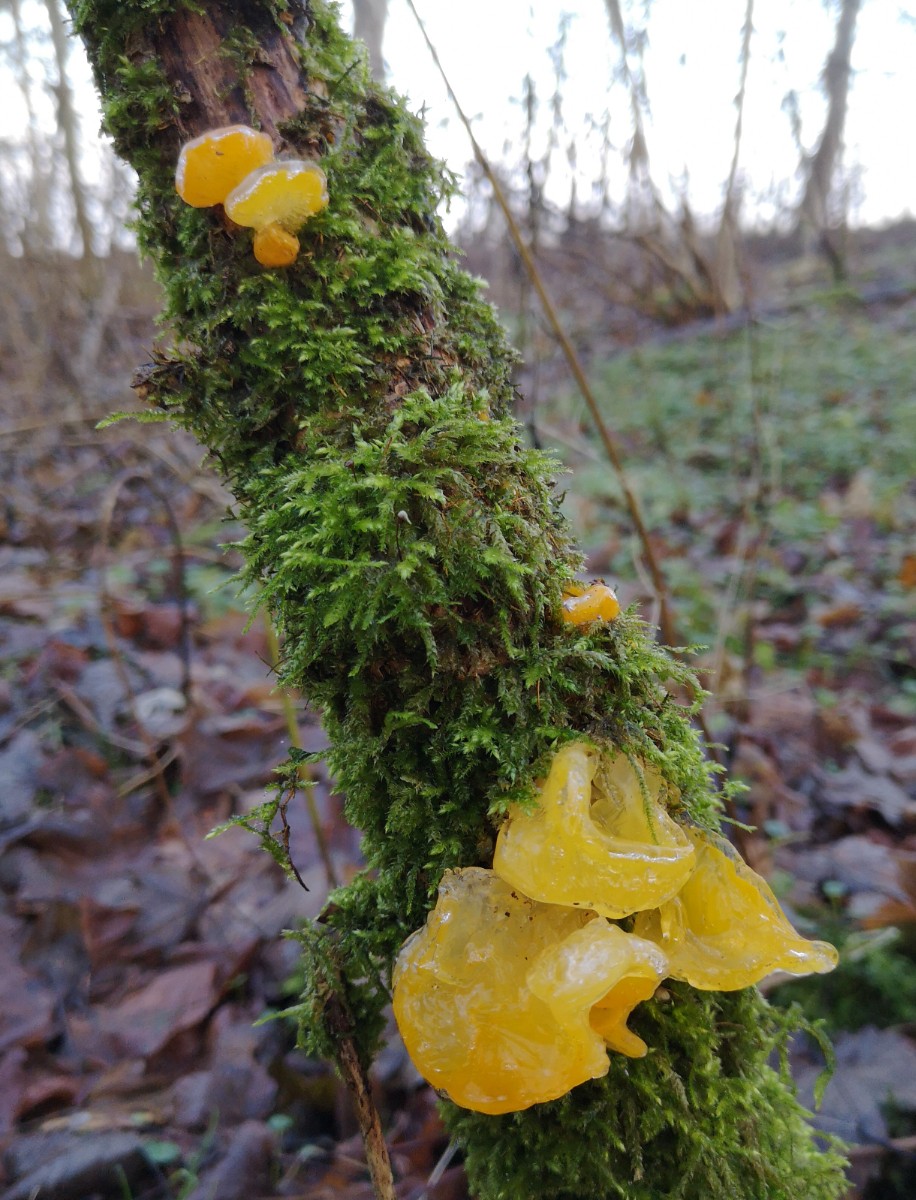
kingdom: Fungi
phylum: Basidiomycota
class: Tremellomycetes
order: Tremellales
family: Tremellaceae
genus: Tremella
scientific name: Tremella mesenterica
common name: gul bævresvamp
